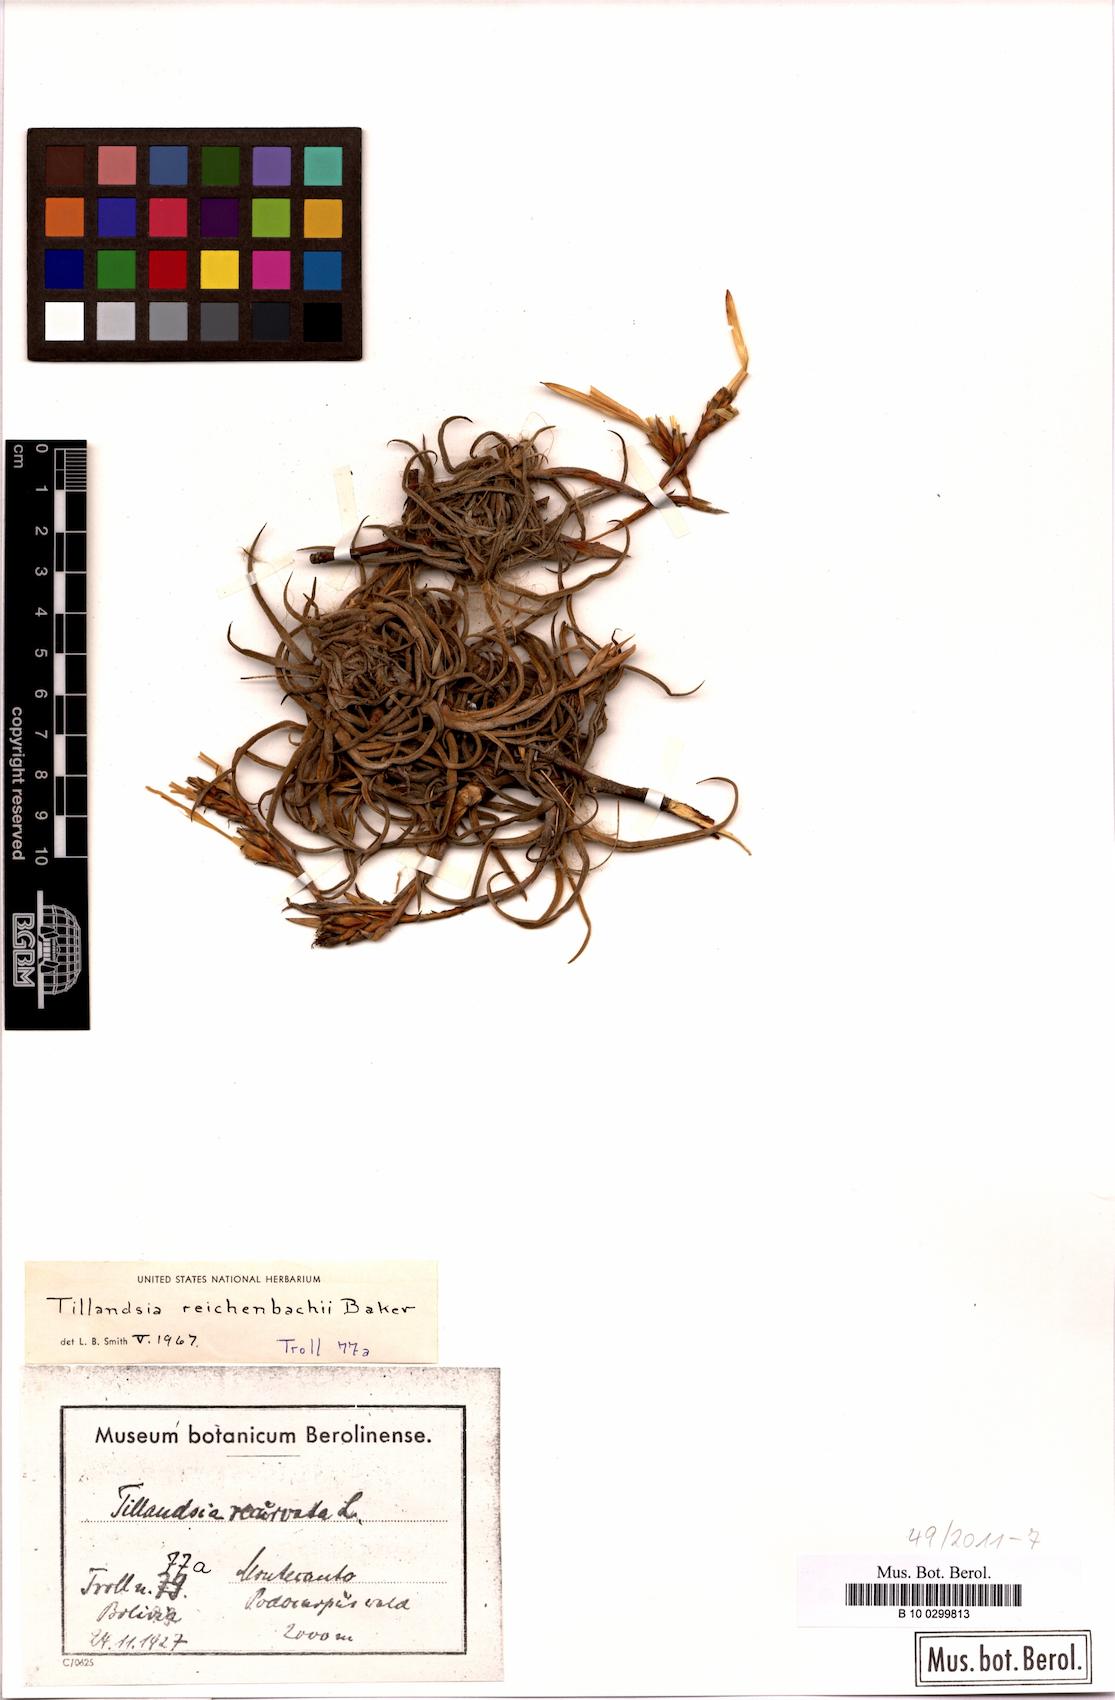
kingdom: Plantae
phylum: Tracheophyta
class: Liliopsida
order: Poales
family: Bromeliaceae
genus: Tillandsia
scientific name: Tillandsia reichenbachii
